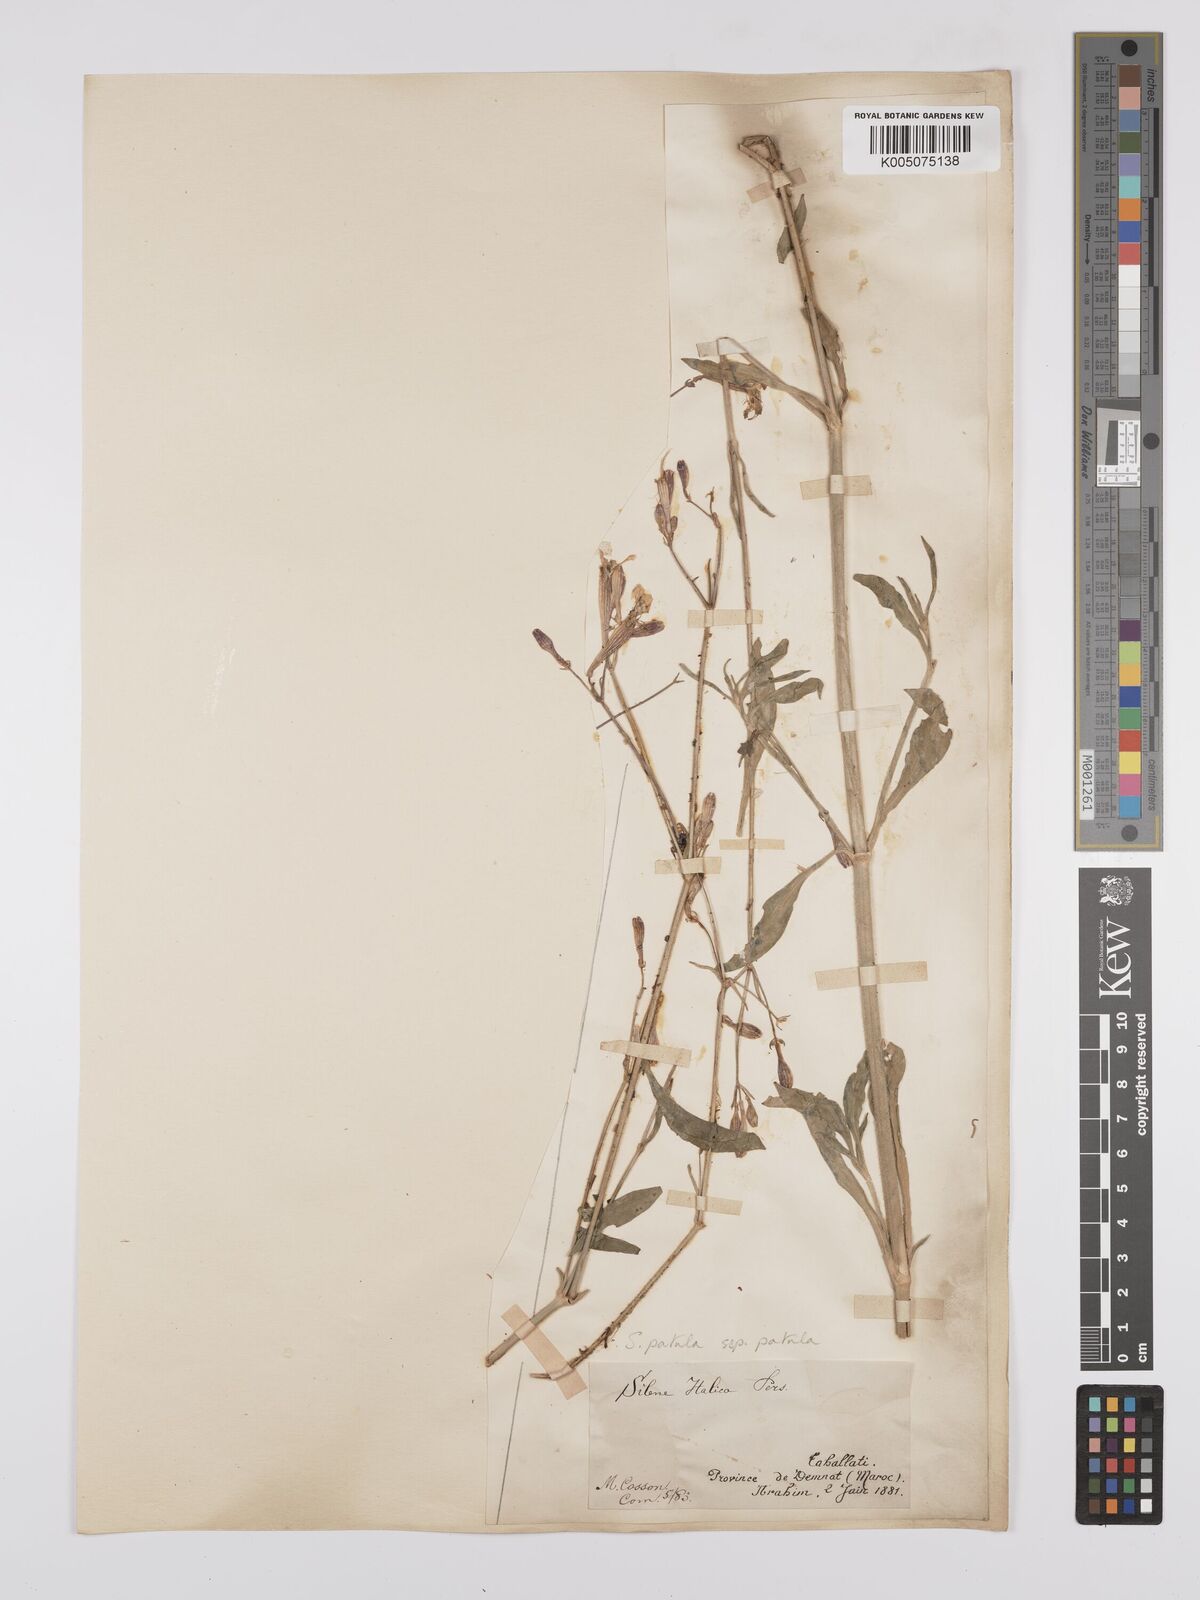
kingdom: Plantae
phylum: Tracheophyta
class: Magnoliopsida
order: Caryophyllales
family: Caryophyllaceae
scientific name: Caryophyllaceae
